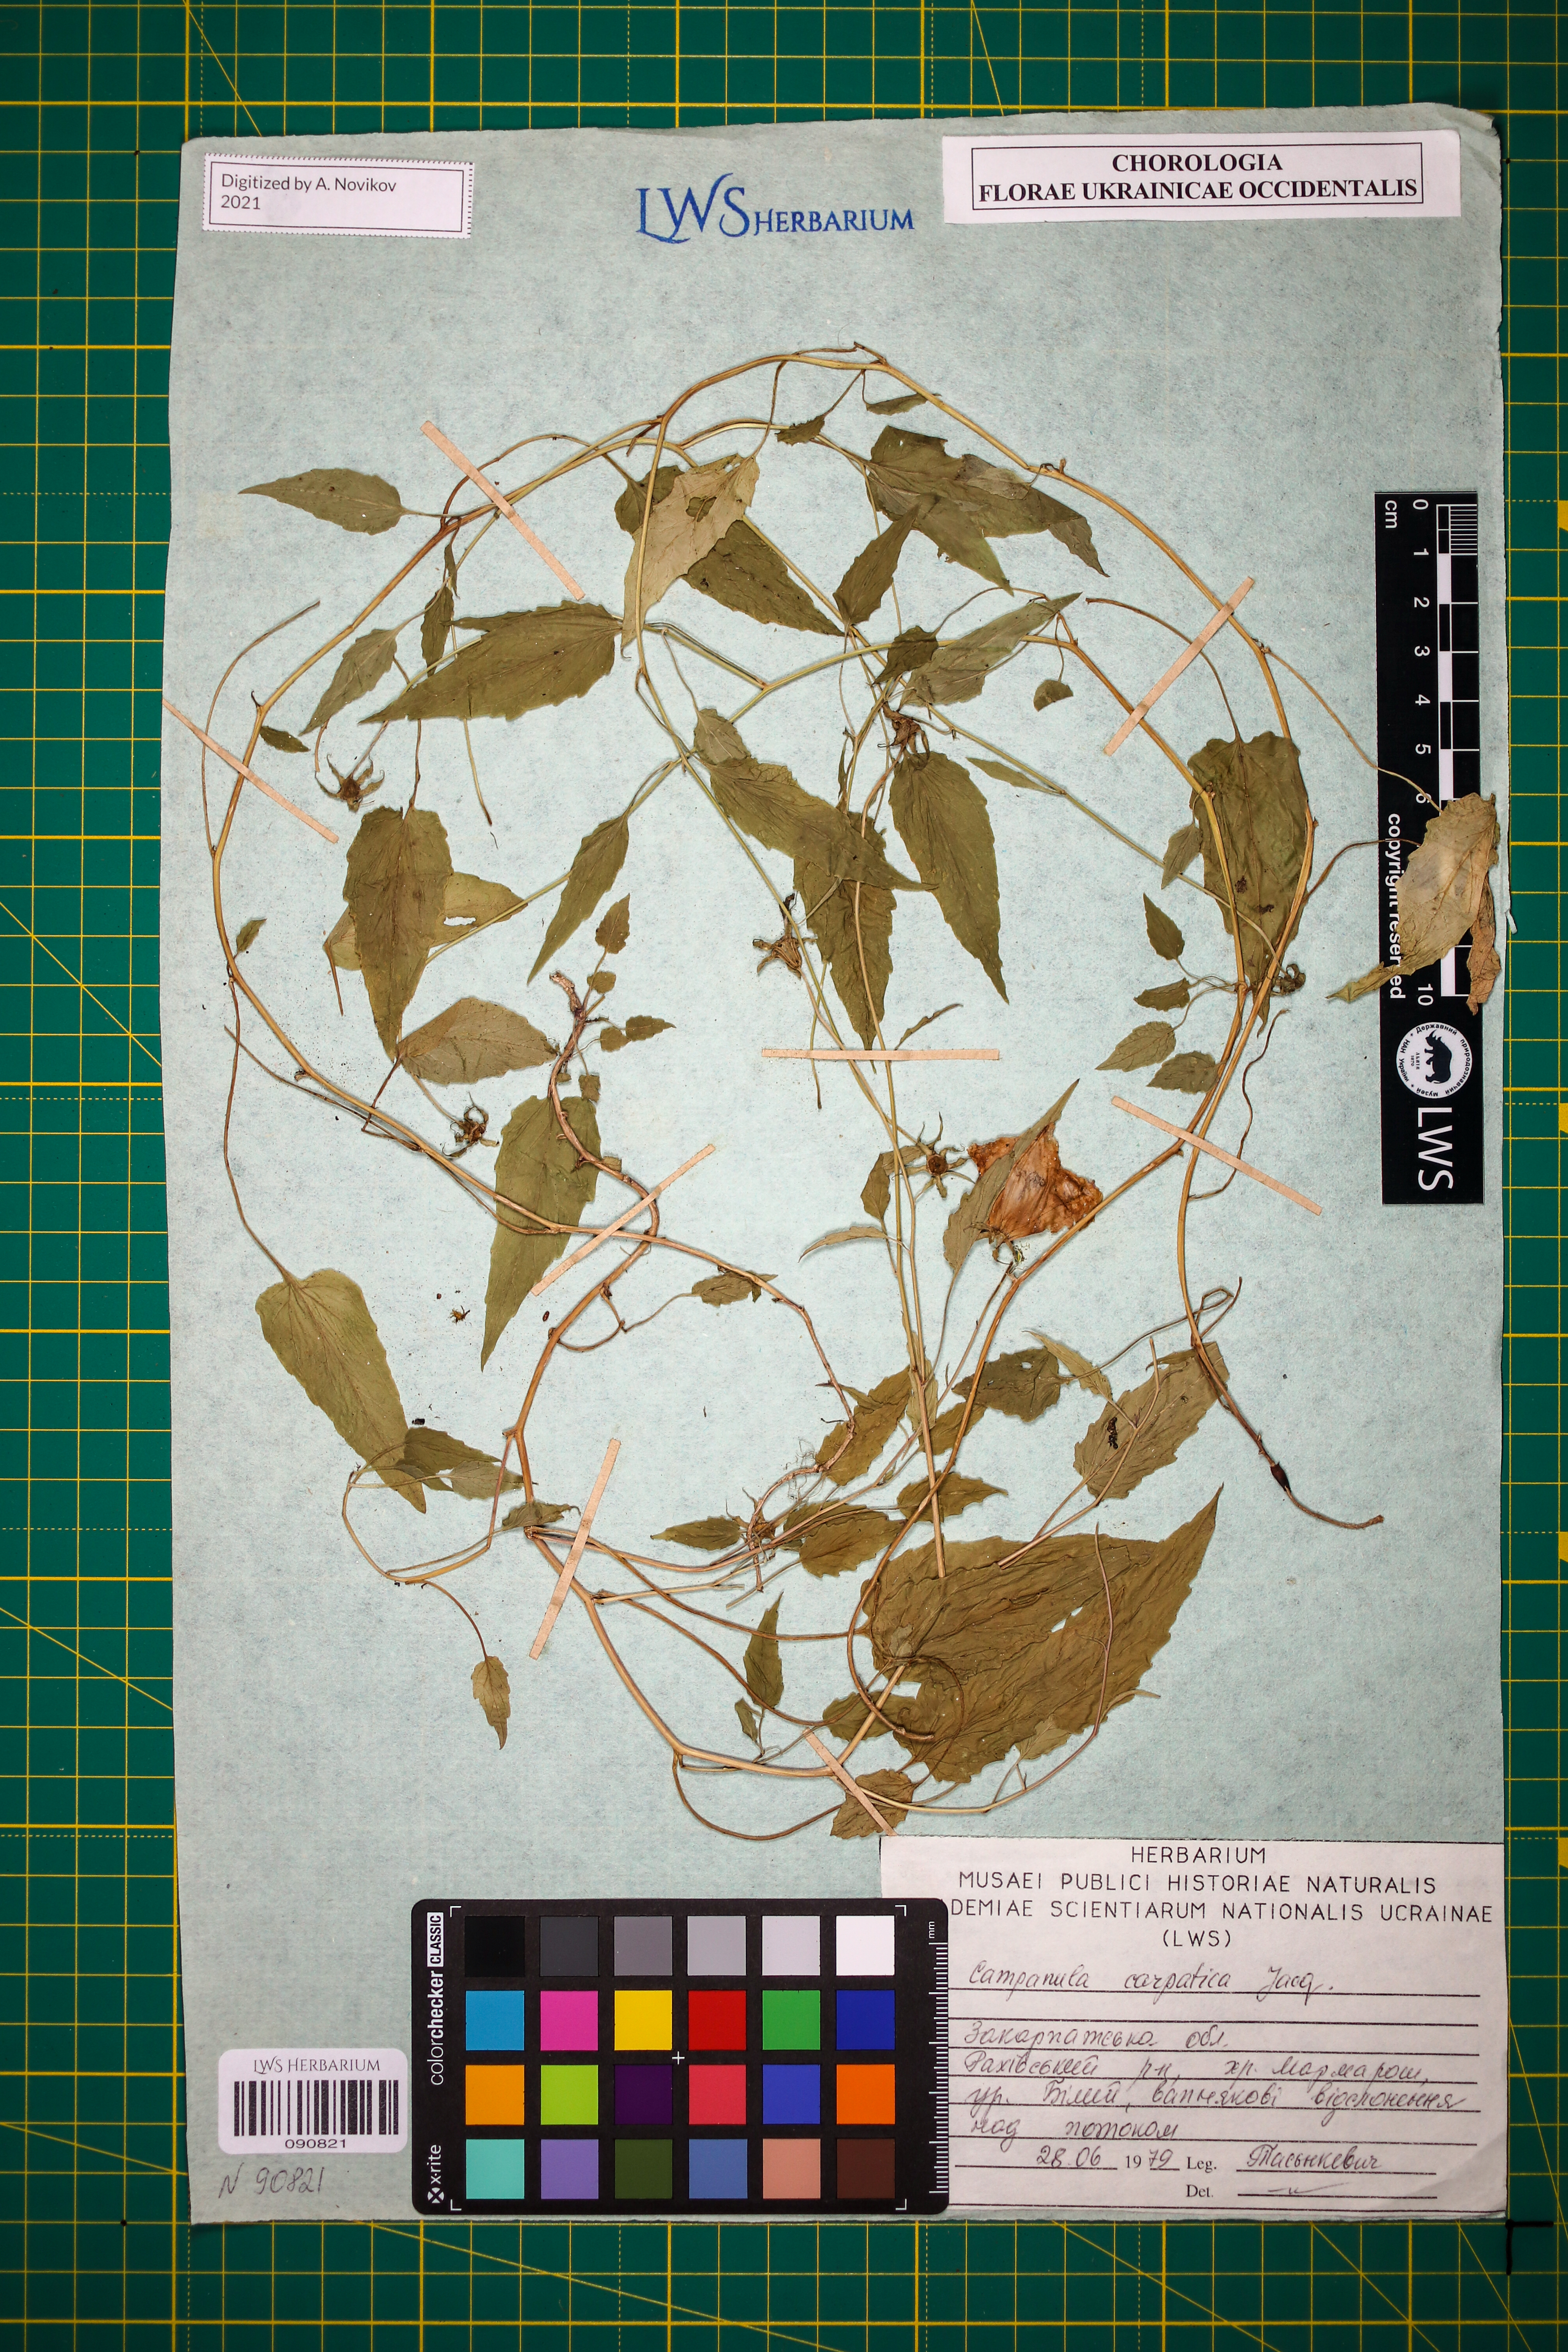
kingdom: Plantae
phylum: Tracheophyta
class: Magnoliopsida
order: Asterales
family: Campanulaceae
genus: Campanula
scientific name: Campanula carpatica
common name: Tussock bellflower
